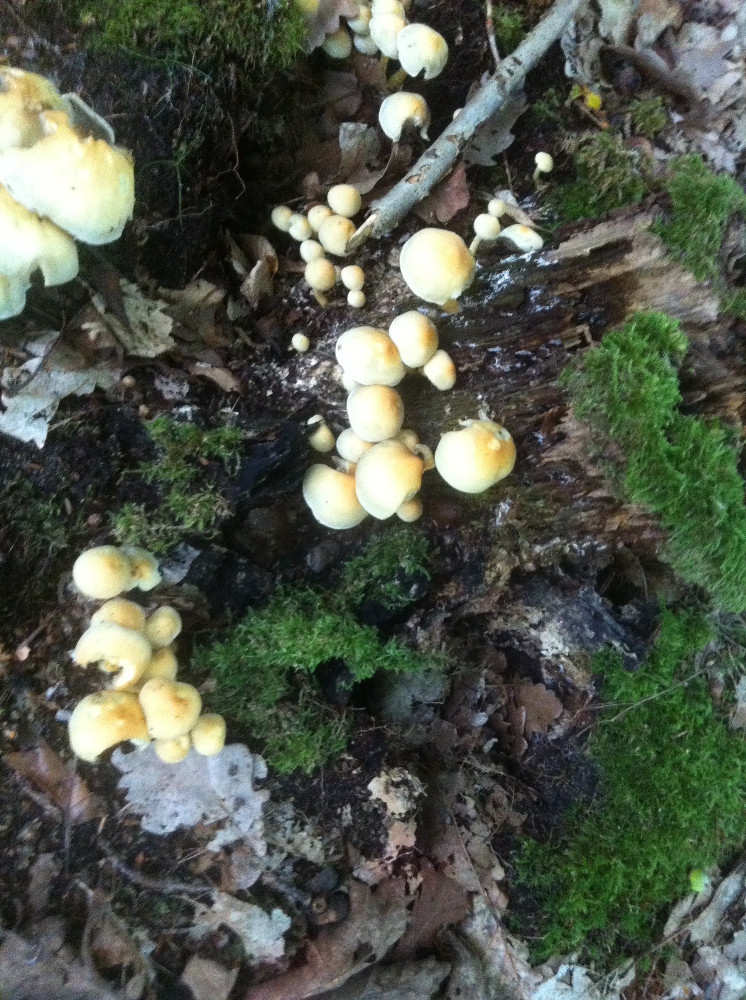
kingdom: Fungi
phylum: Basidiomycota
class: Agaricomycetes
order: Agaricales
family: Strophariaceae
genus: Hypholoma
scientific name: Hypholoma fasciculare
